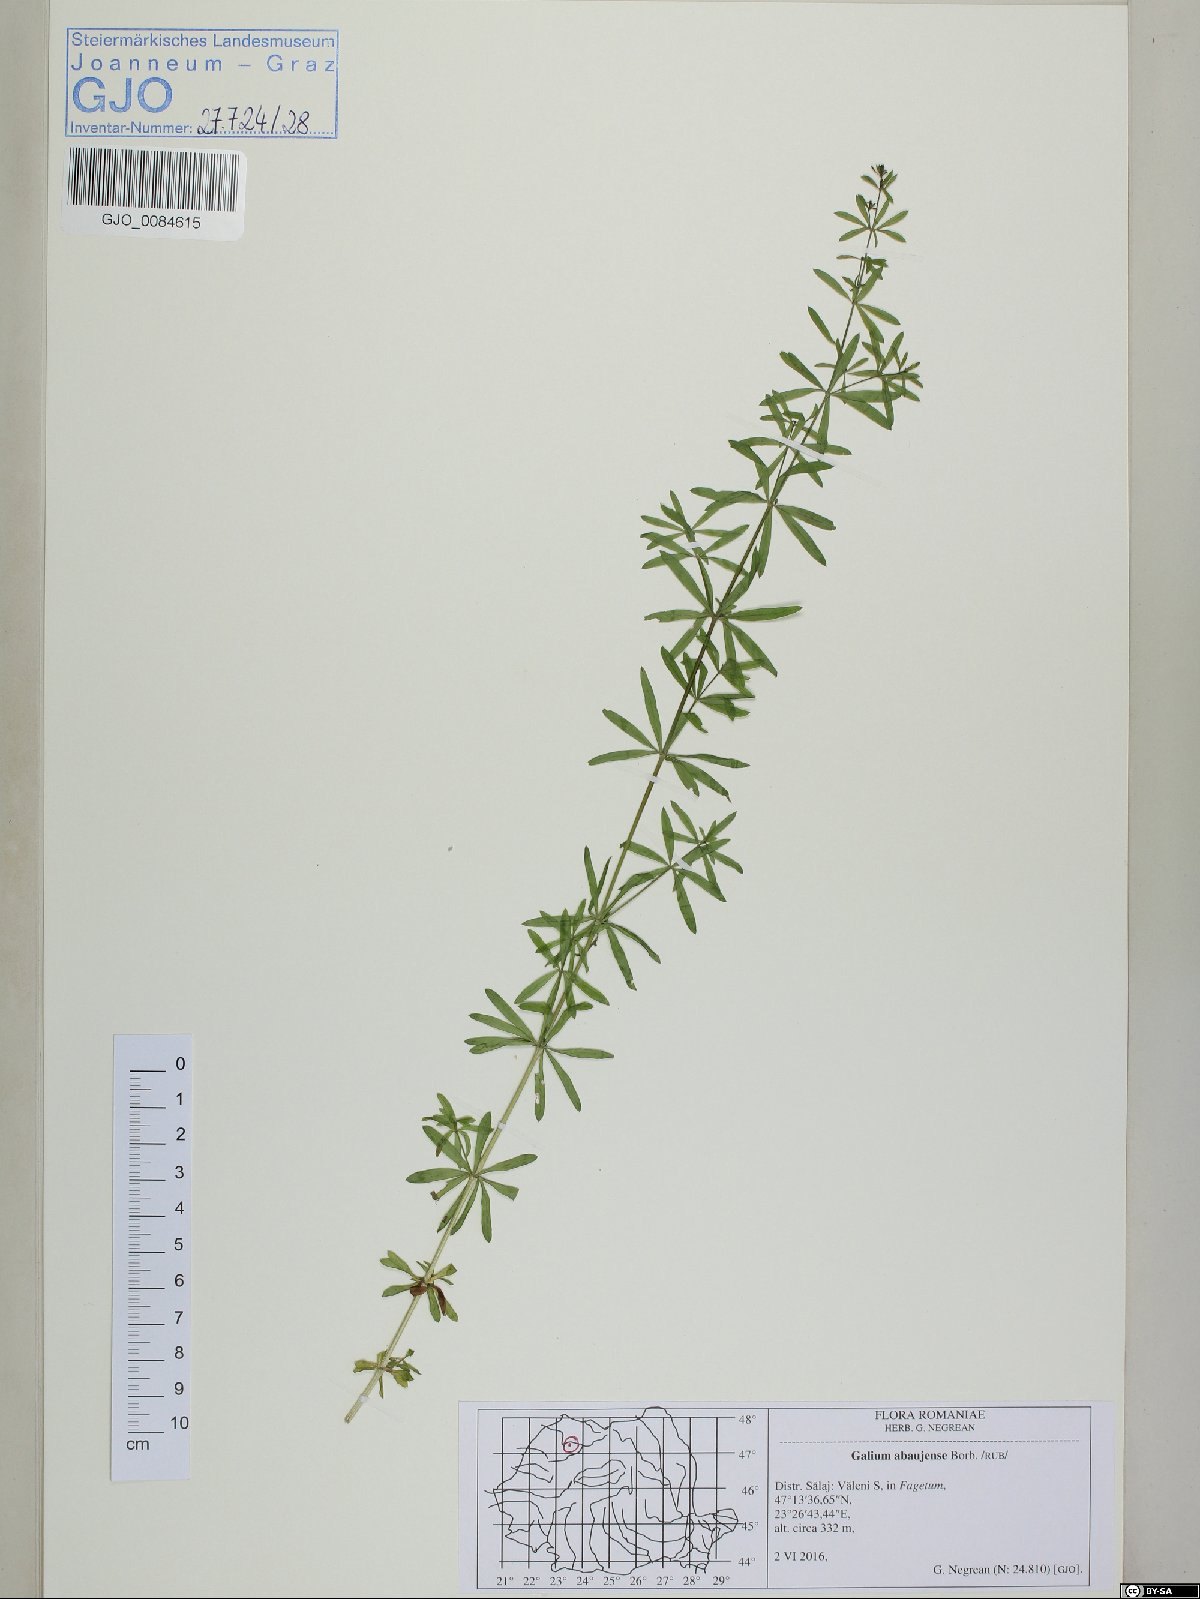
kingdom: Plantae
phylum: Tracheophyta
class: Magnoliopsida
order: Gentianales
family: Rubiaceae
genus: Galium
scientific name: Galium abaujense
